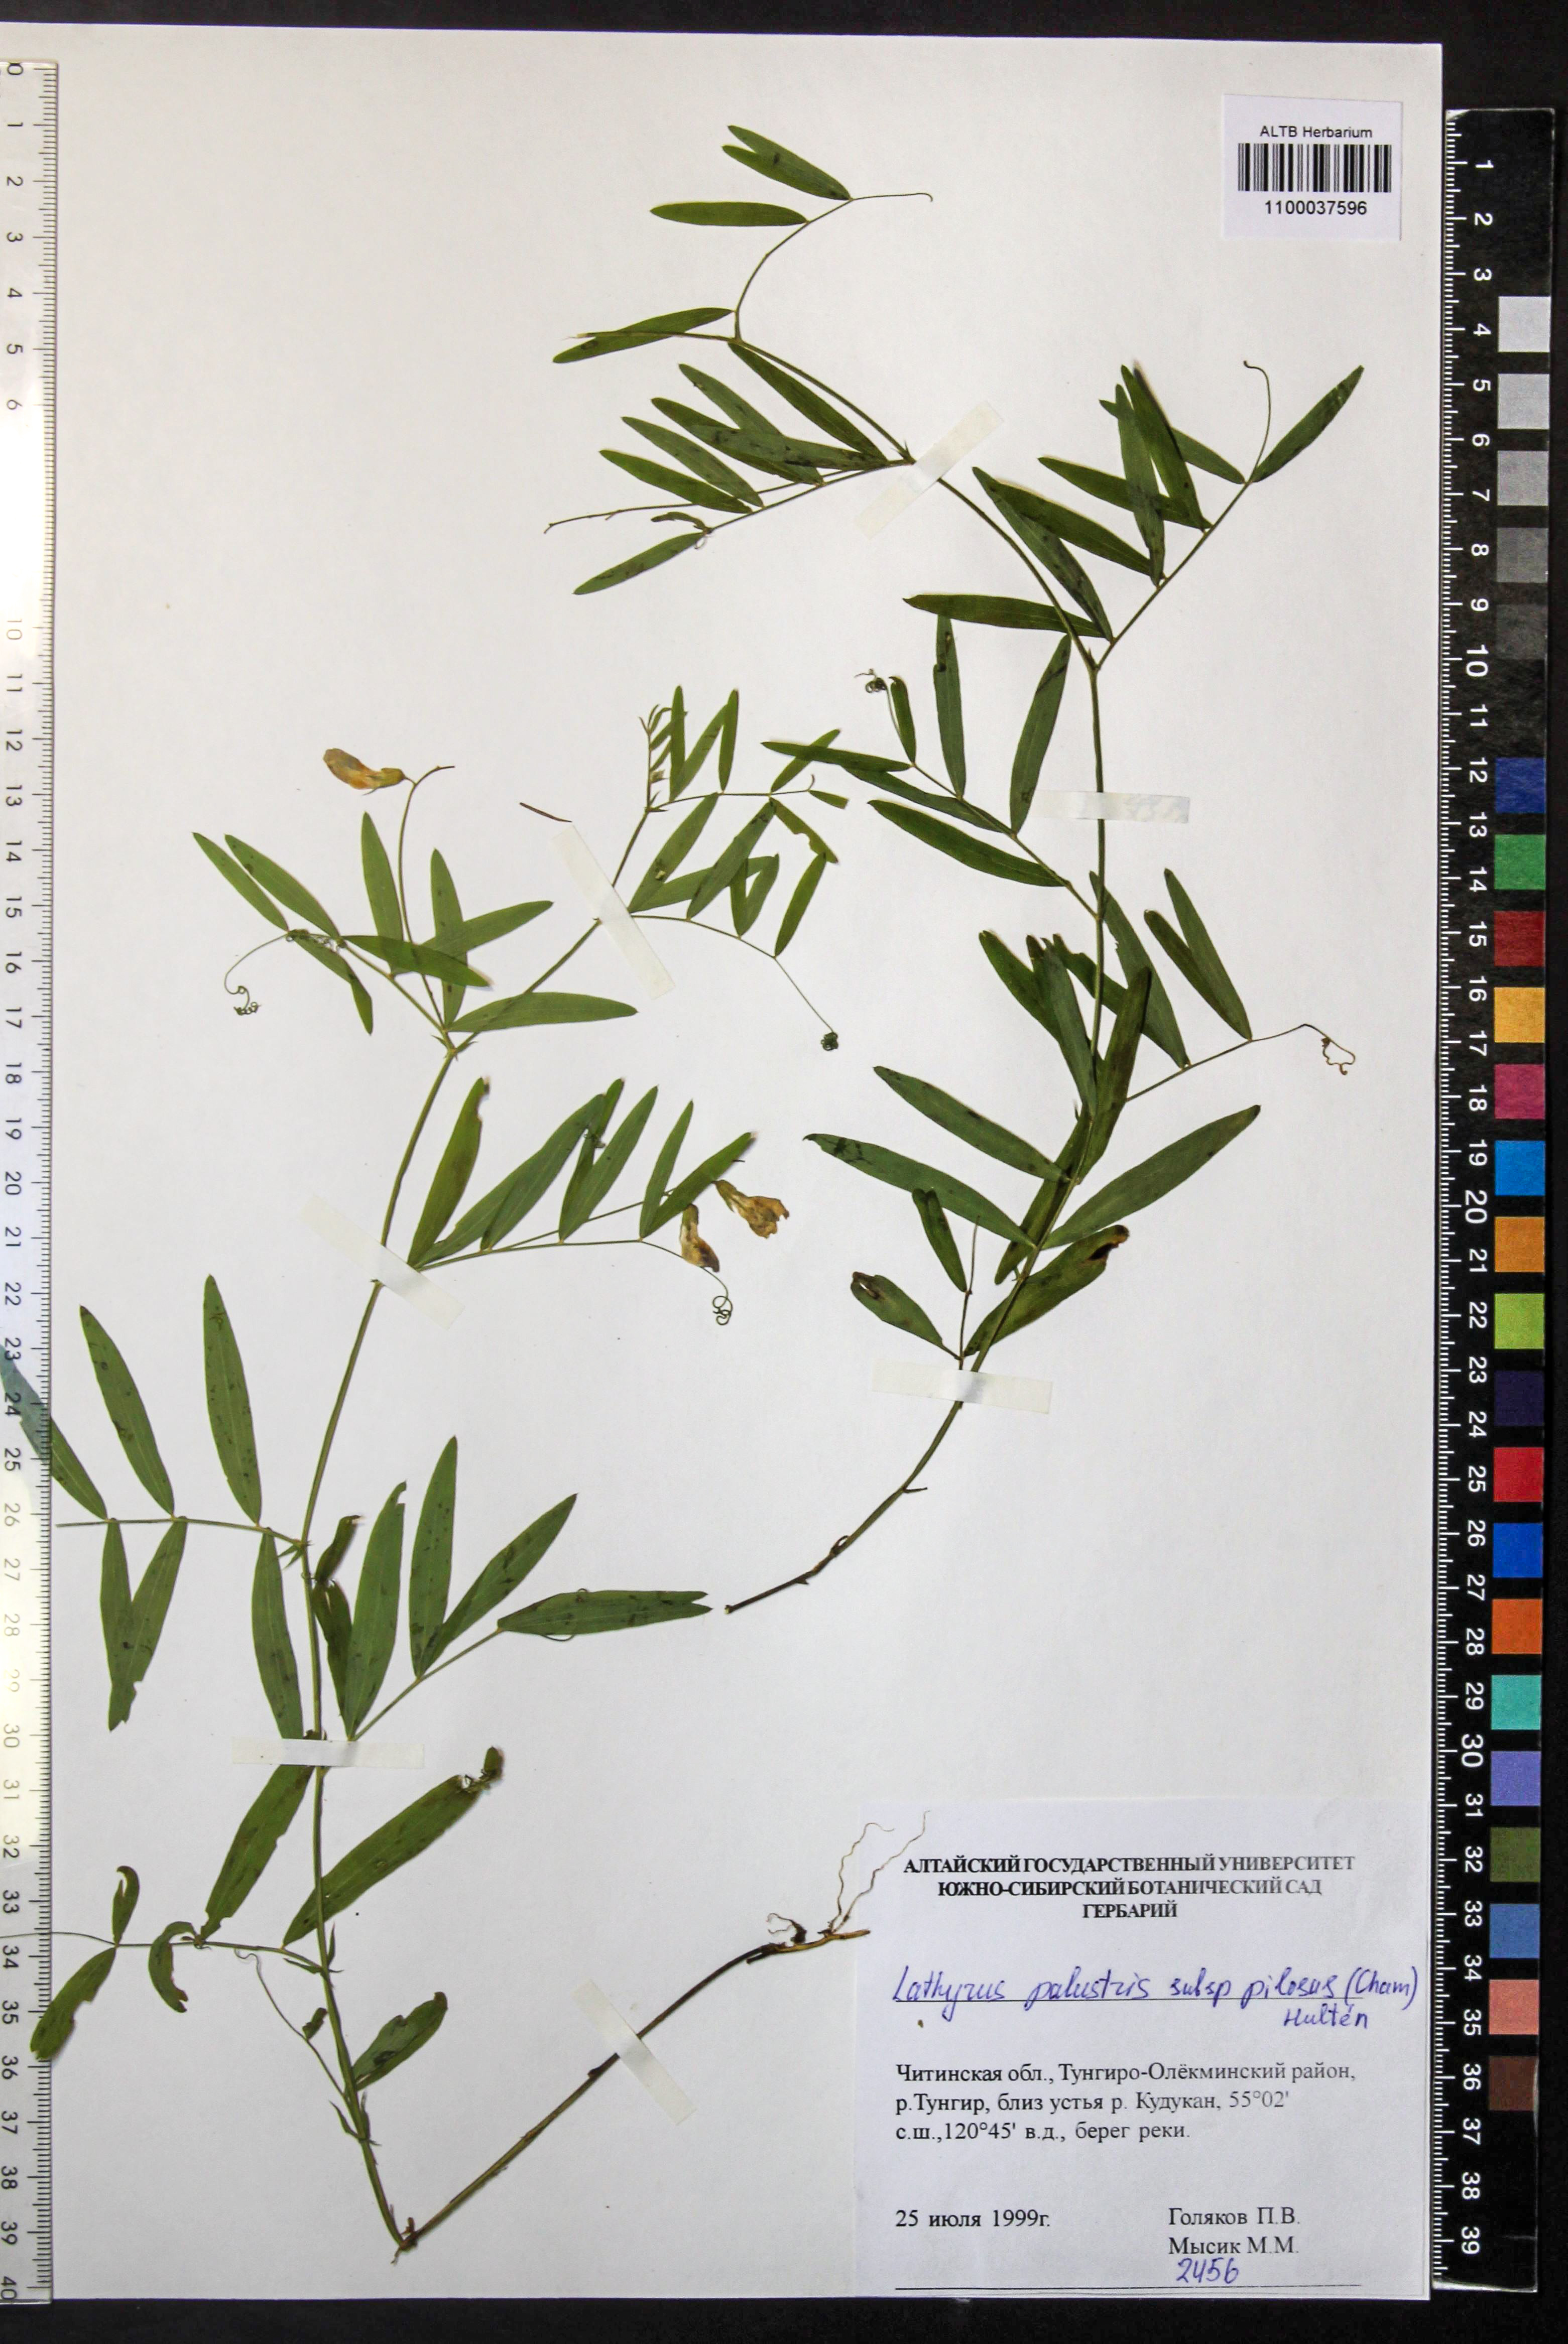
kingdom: Plantae
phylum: Tracheophyta
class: Magnoliopsida
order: Fabales
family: Fabaceae
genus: Lathyrus
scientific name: Lathyrus palustris
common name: Marsh pea
